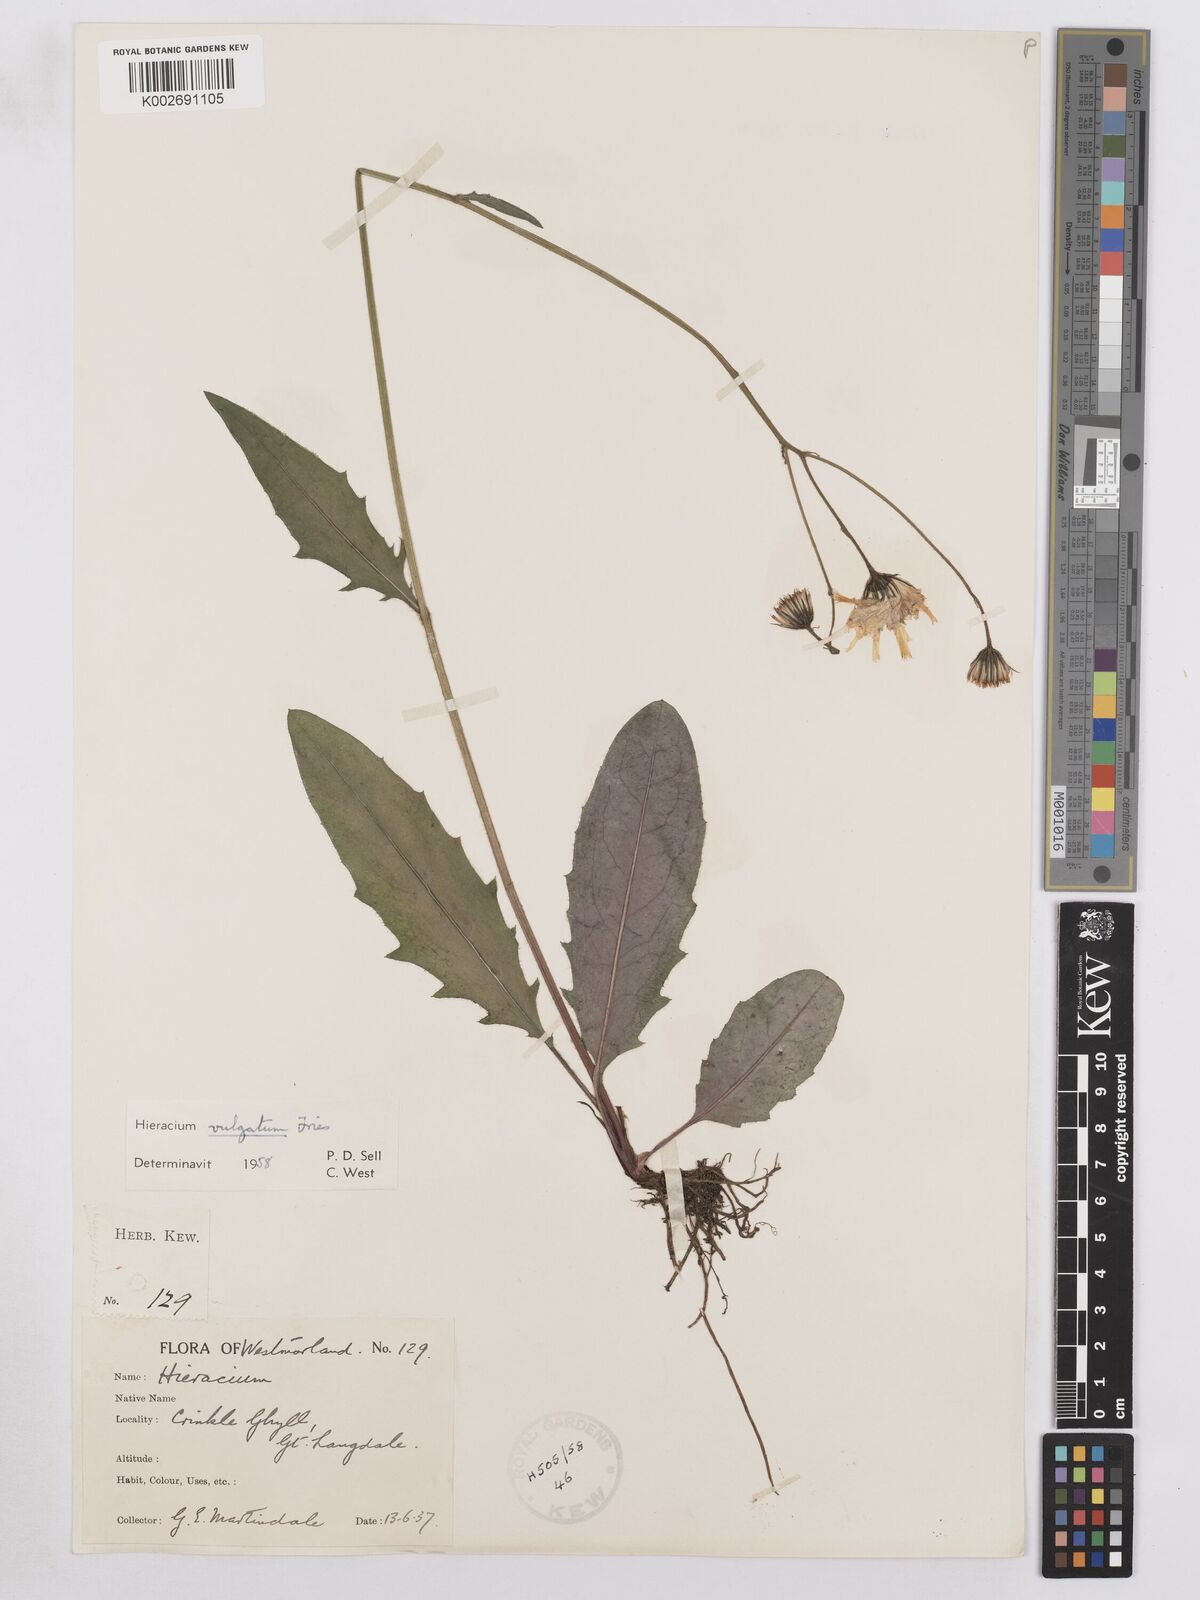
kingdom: Plantae
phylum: Tracheophyta
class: Magnoliopsida
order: Asterales
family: Asteraceae
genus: Hieracium
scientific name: Hieracium lachenalii
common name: Common hawkweed
